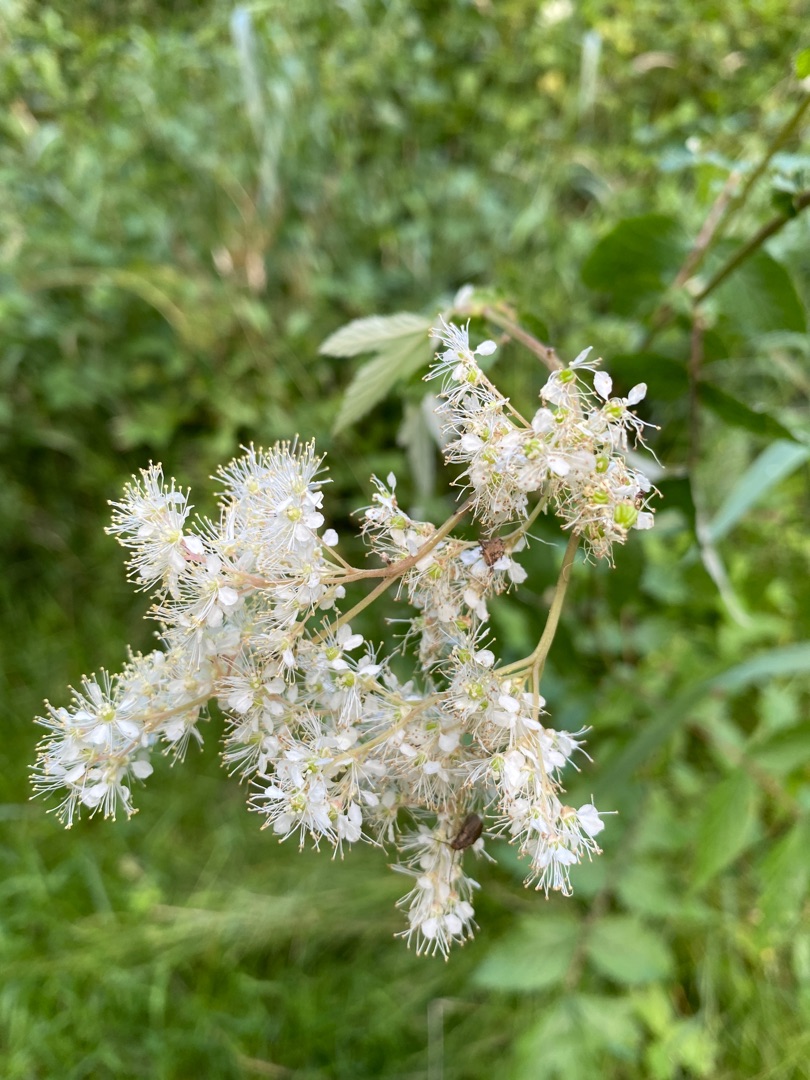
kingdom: Plantae
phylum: Tracheophyta
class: Magnoliopsida
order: Rosales
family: Rosaceae
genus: Filipendula
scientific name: Filipendula ulmaria
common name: Almindelig mjødurt
